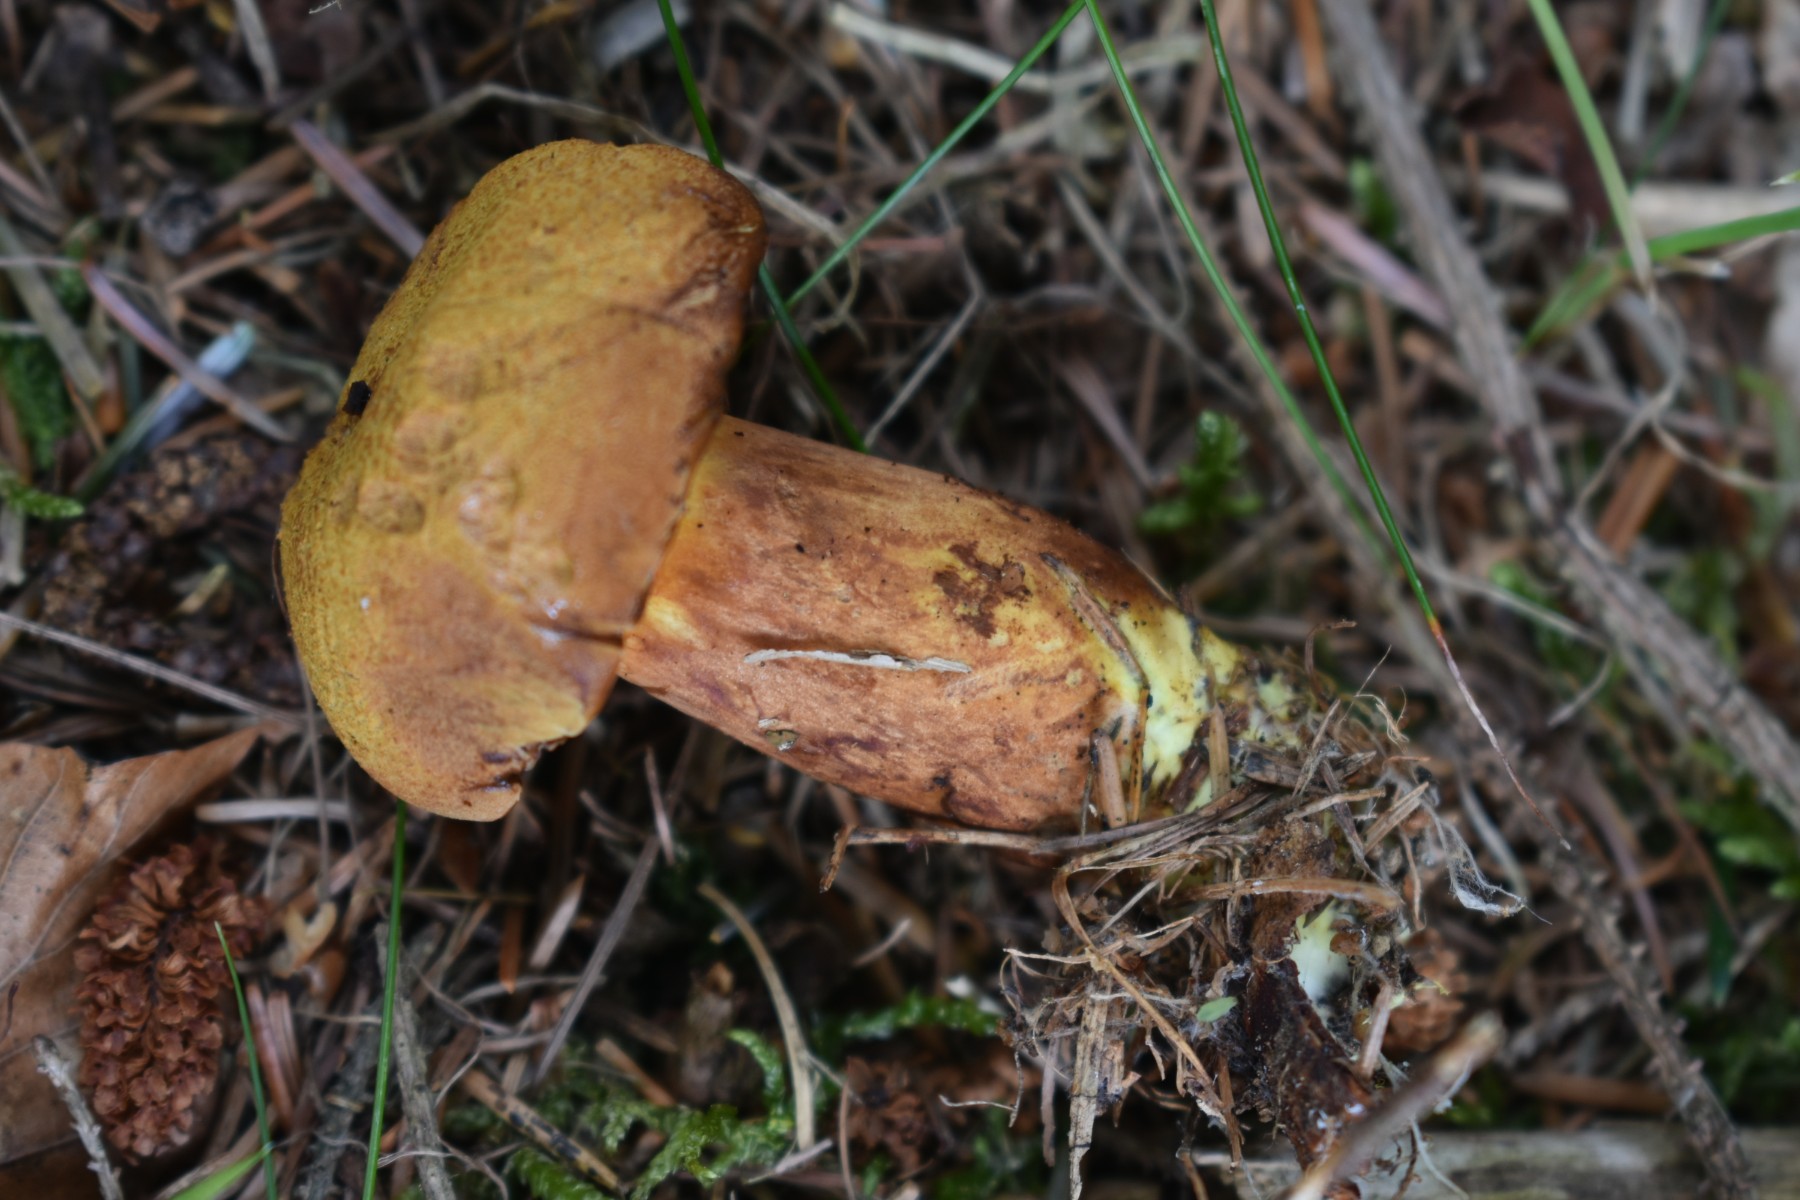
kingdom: Fungi
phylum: Basidiomycota
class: Agaricomycetes
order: Boletales
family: Boletaceae
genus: Buchwaldoboletus
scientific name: Buchwaldoboletus lignicola
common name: stødrørhat
